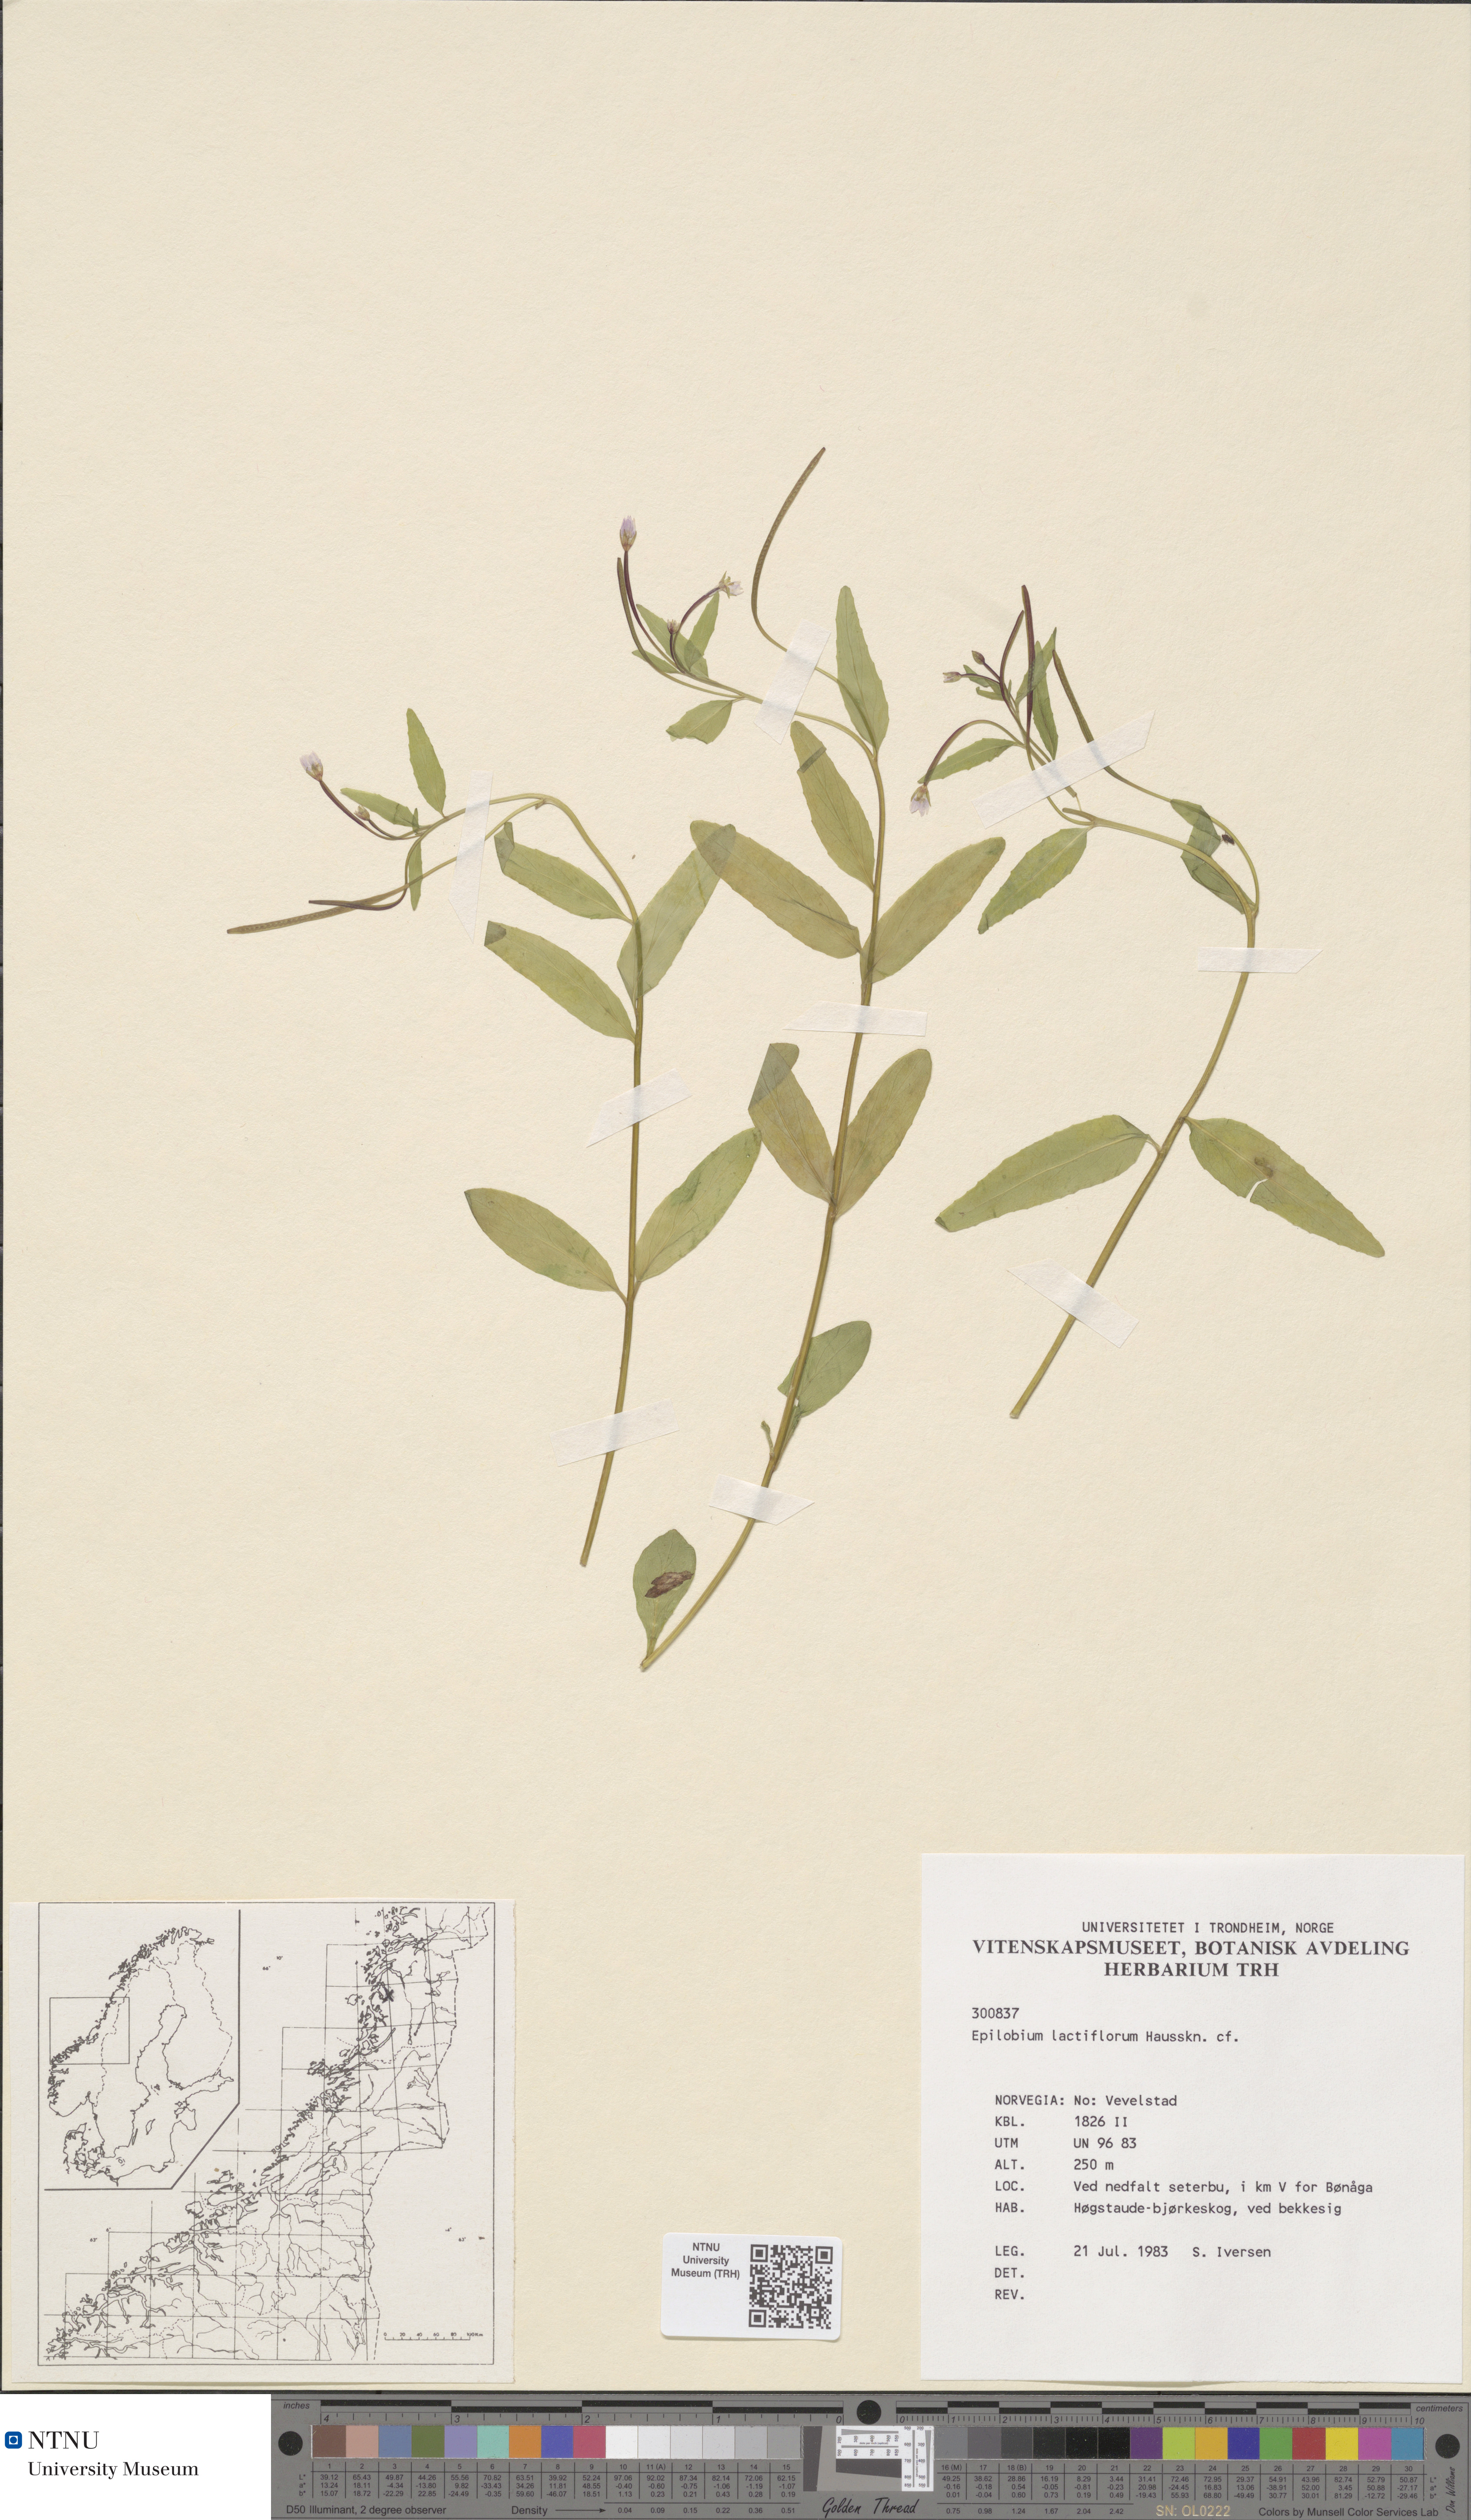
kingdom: Plantae
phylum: Tracheophyta
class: Magnoliopsida
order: Myrtales
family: Onagraceae
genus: Epilobium
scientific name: Epilobium lactiflorum
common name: Milkflower willowherb
